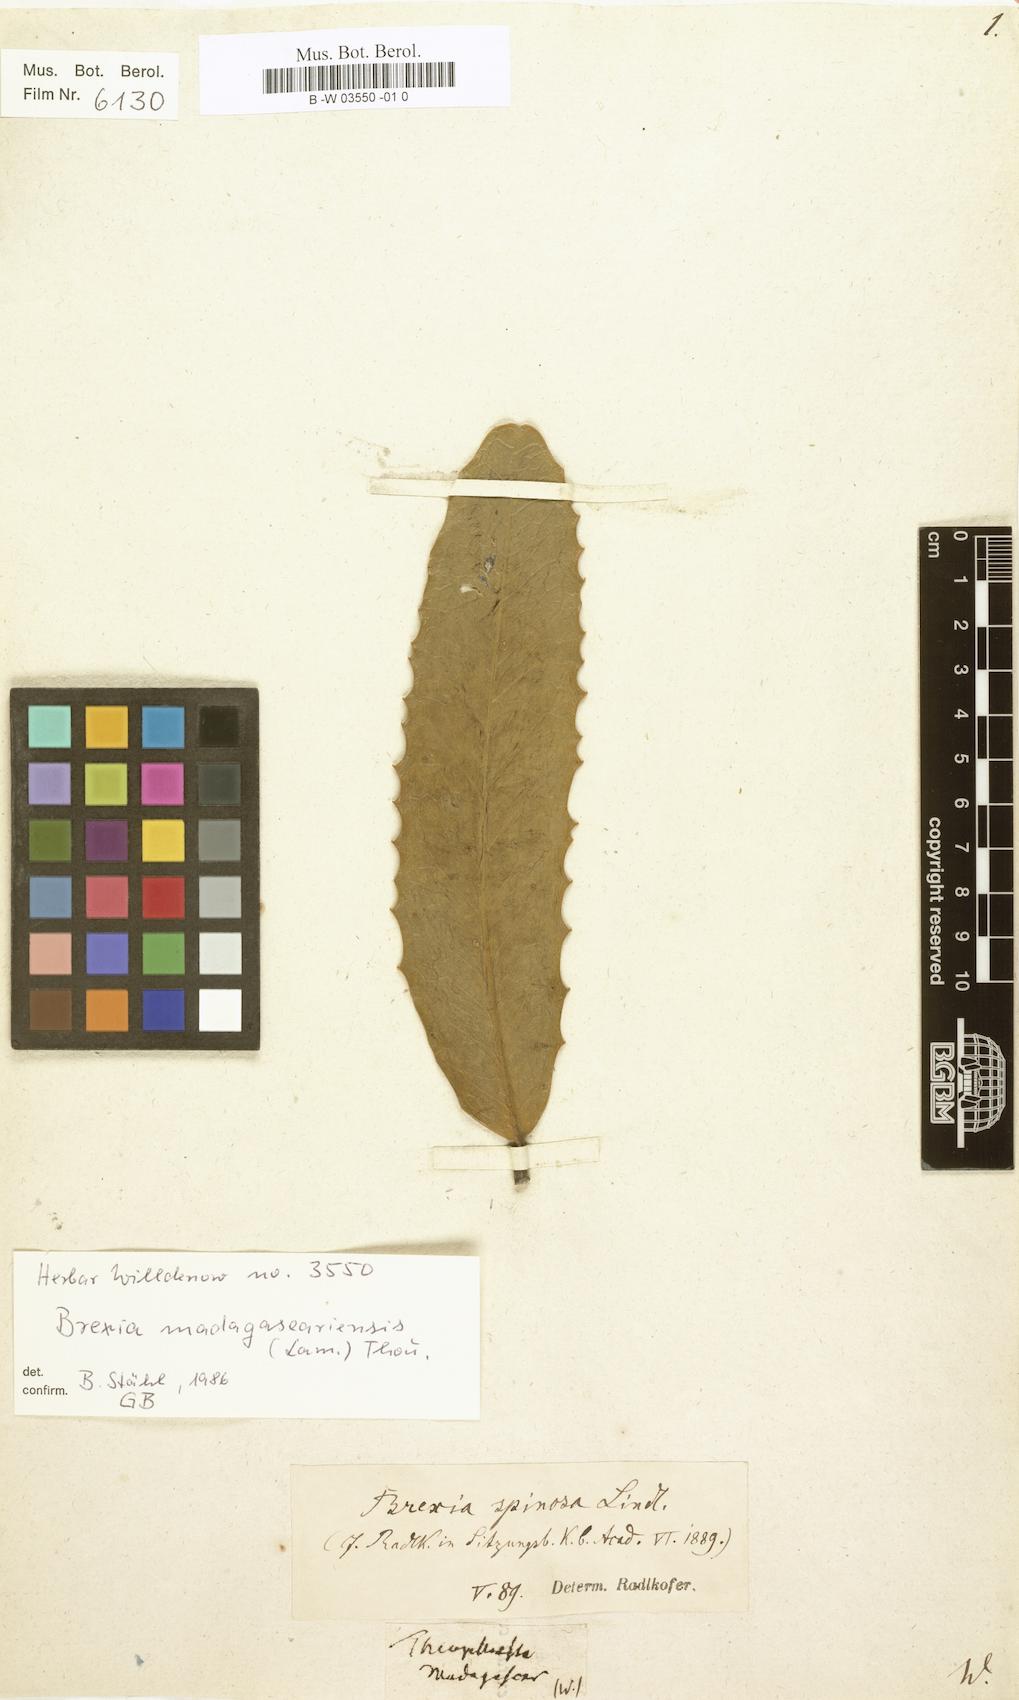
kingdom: Plantae
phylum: Tracheophyta
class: Magnoliopsida
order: Ericales
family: Primulaceae
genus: Theophrasta
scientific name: Theophrasta madagascariensis
